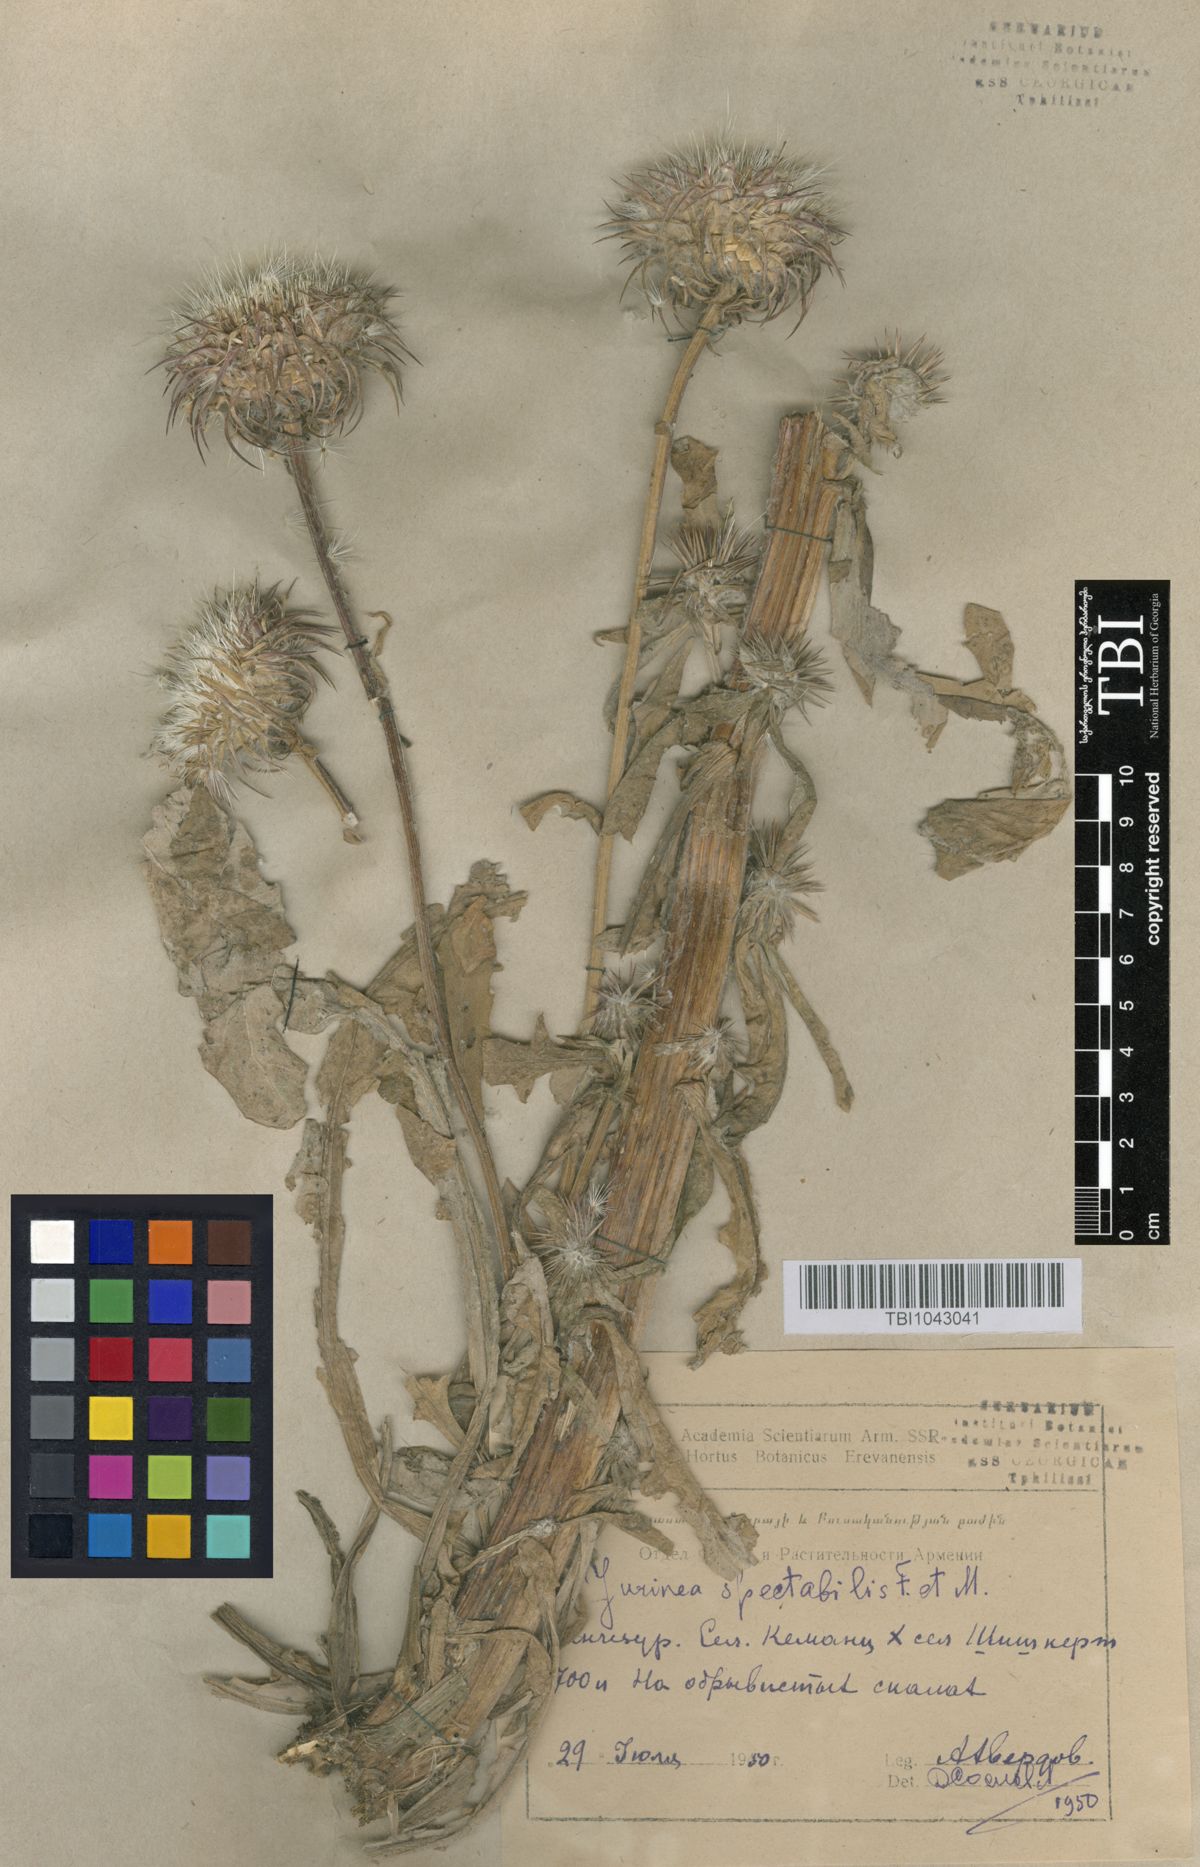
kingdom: Plantae
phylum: Tracheophyta
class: Magnoliopsida
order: Asterales
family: Asteraceae
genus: Jurinea
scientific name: Jurinea spectabilis
